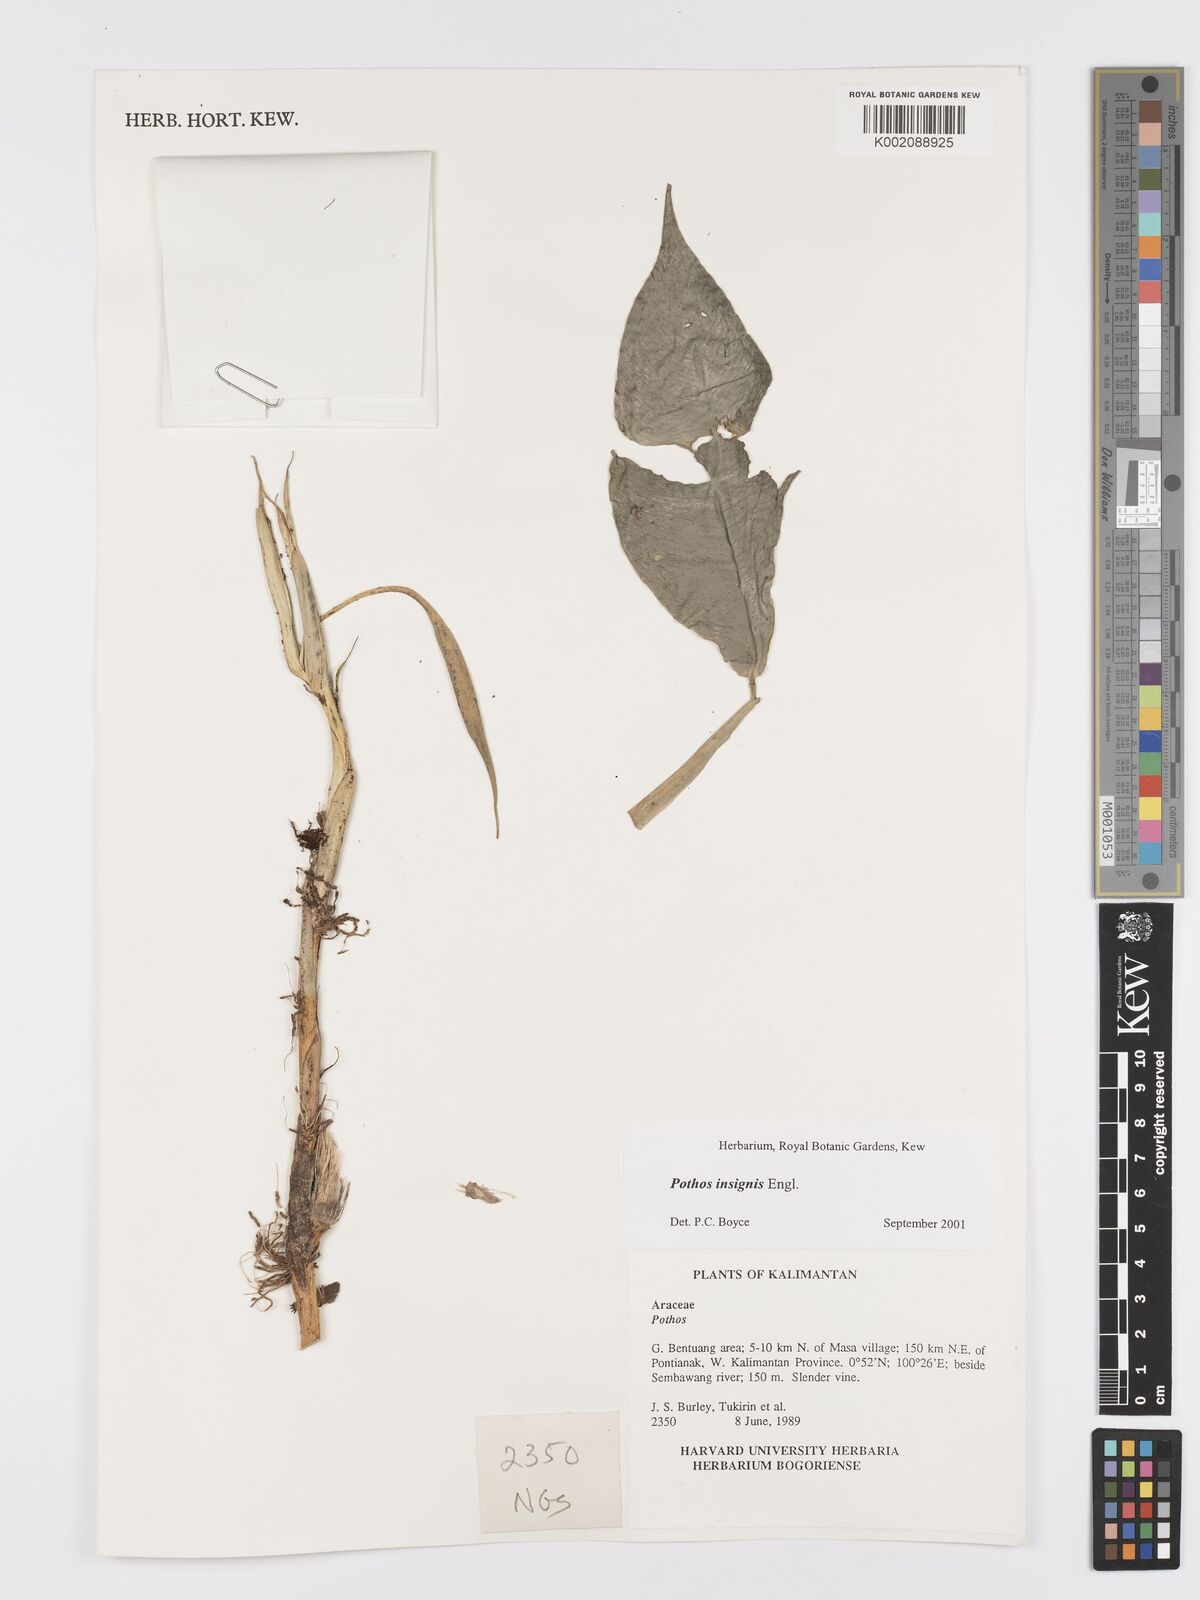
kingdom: Plantae
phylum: Tracheophyta
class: Liliopsida
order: Alismatales
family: Araceae
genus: Pothos
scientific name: Pothos insignis
